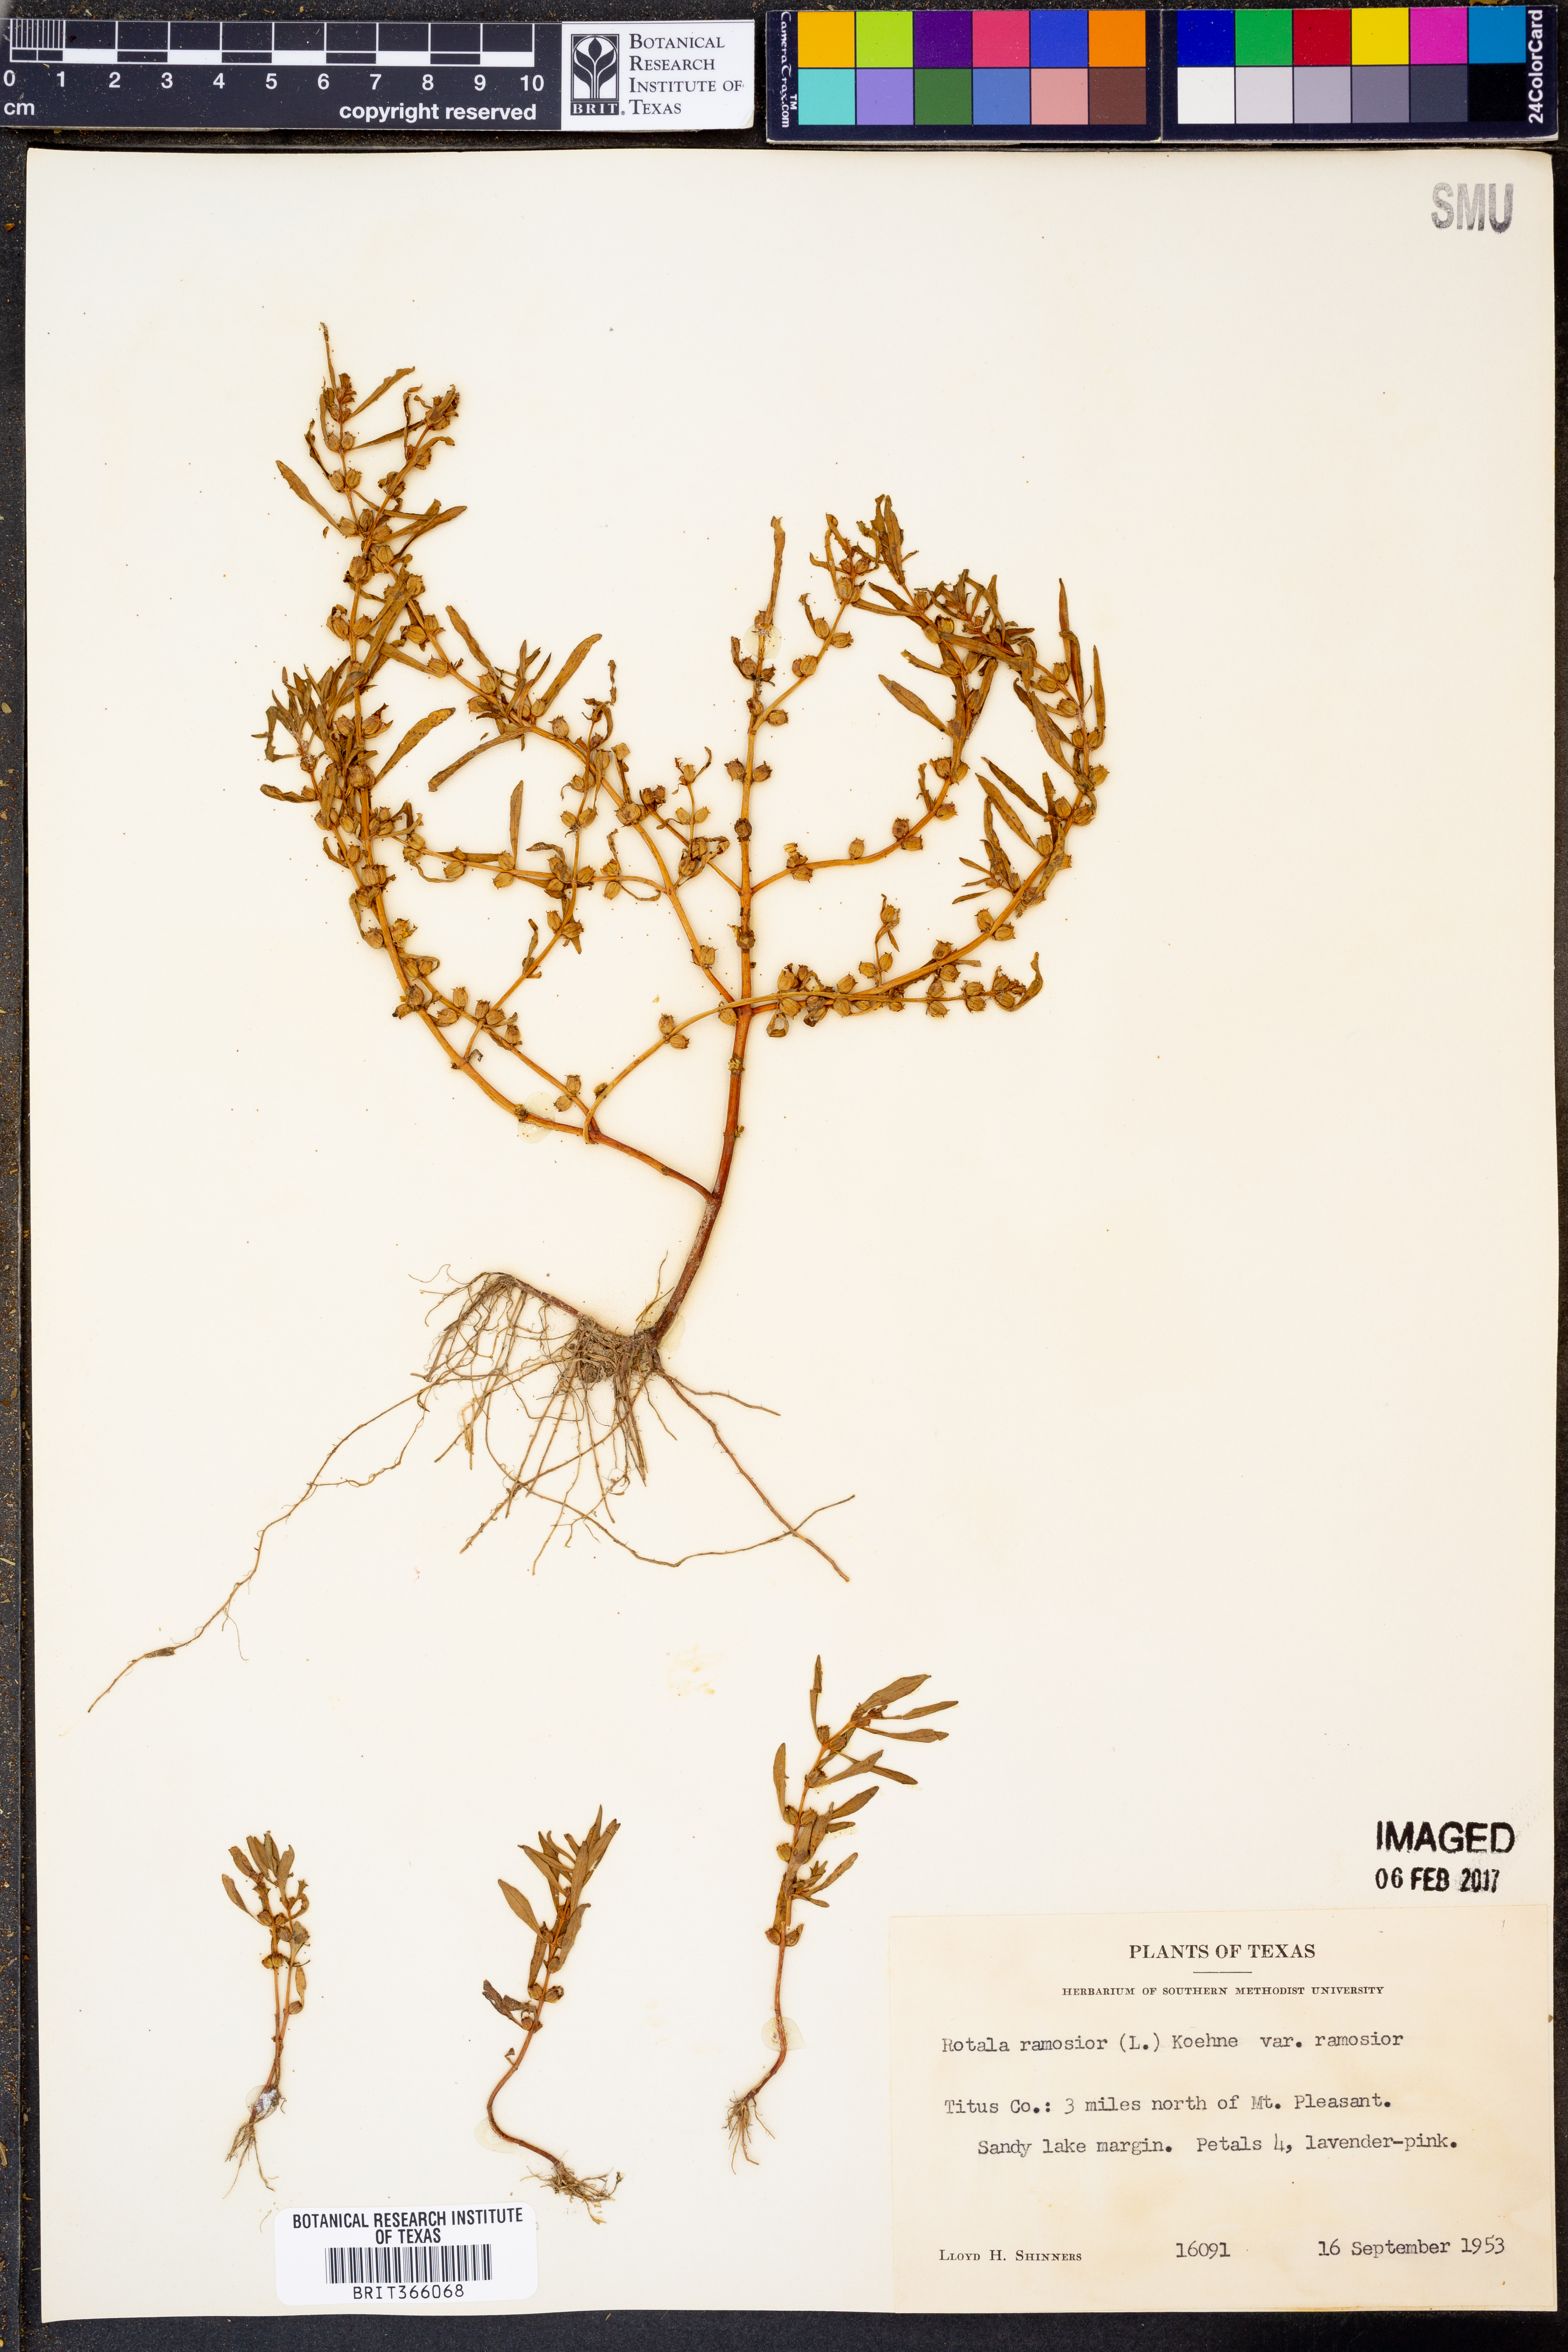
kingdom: Plantae
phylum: Tracheophyta
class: Magnoliopsida
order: Myrtales
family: Lythraceae
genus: Rotala
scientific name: Rotala ramosior
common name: Lowland rotala
